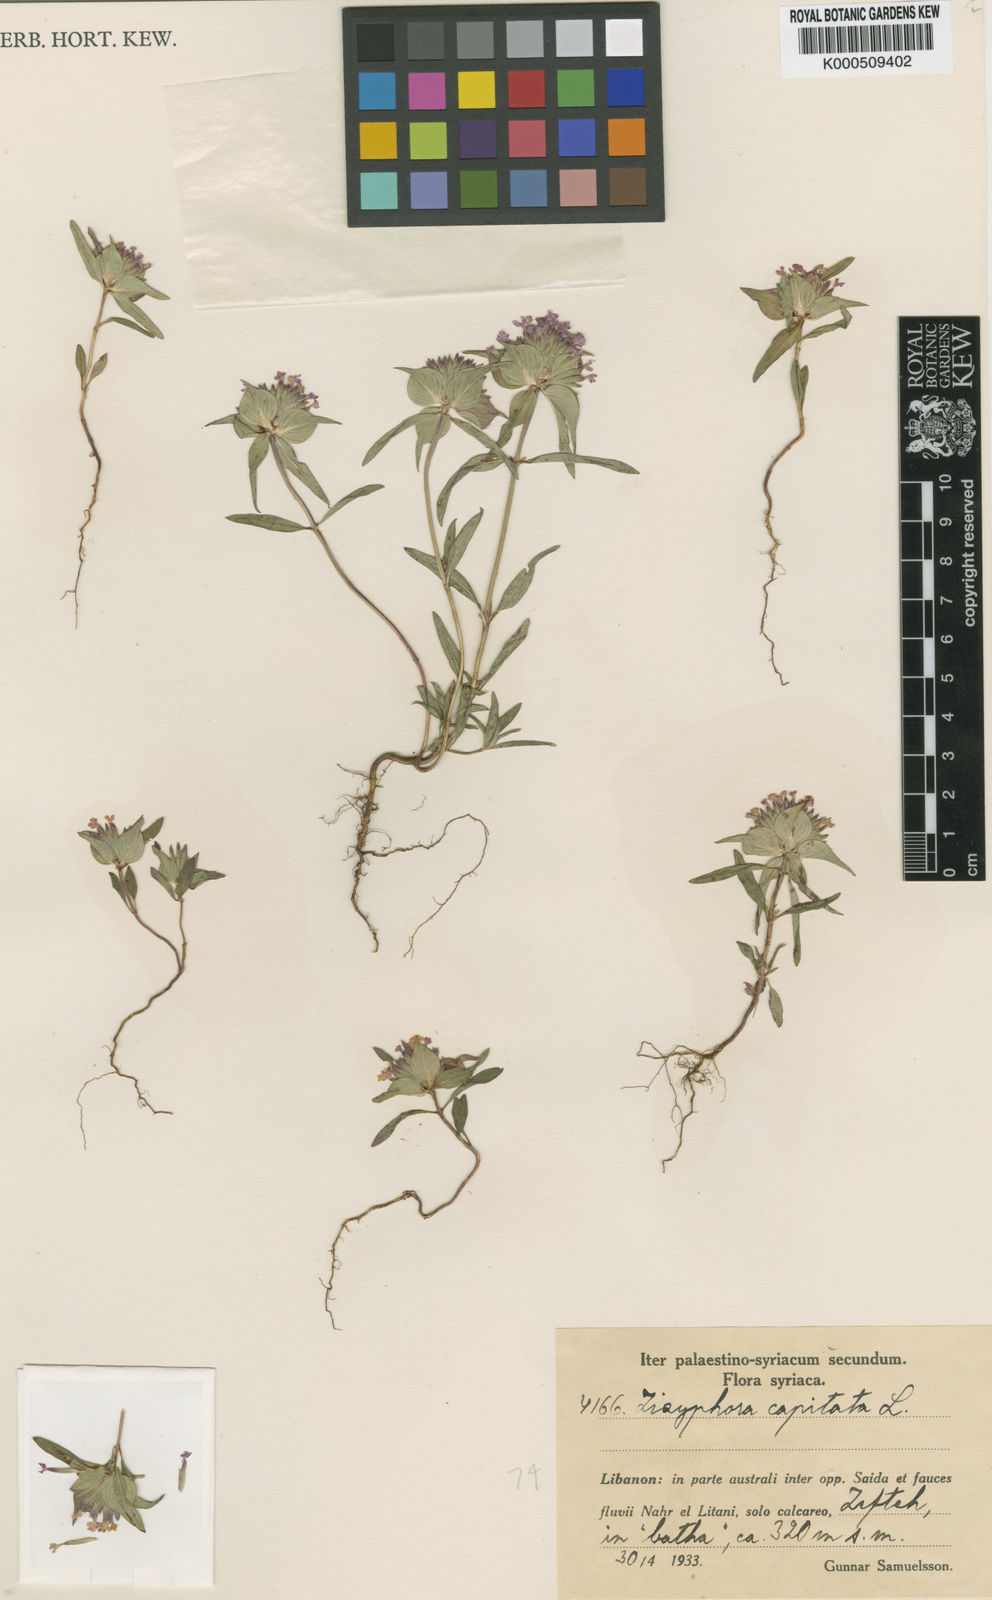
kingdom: Plantae
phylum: Tracheophyta
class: Magnoliopsida
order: Lamiales
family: Lamiaceae
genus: Ziziphora
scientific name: Ziziphora capitata
